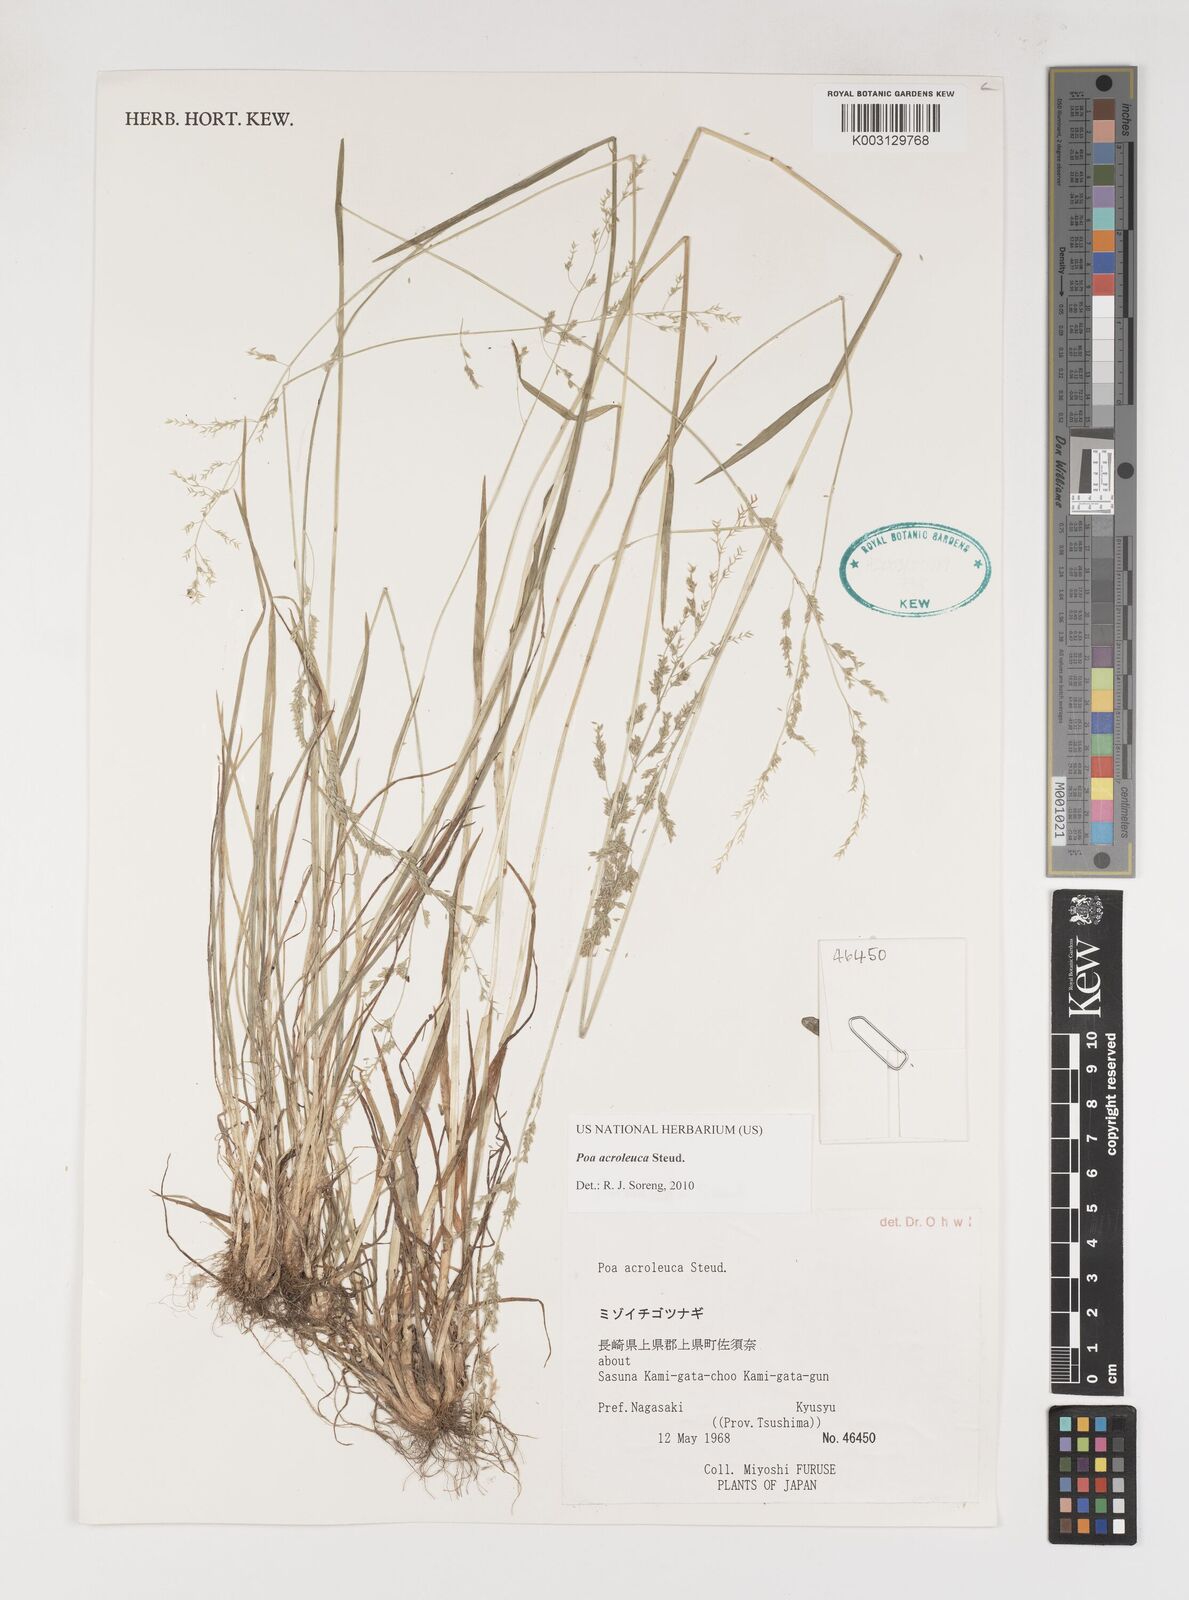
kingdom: Plantae
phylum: Tracheophyta
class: Liliopsida
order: Poales
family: Poaceae
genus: Poa
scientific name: Poa acroleuca
